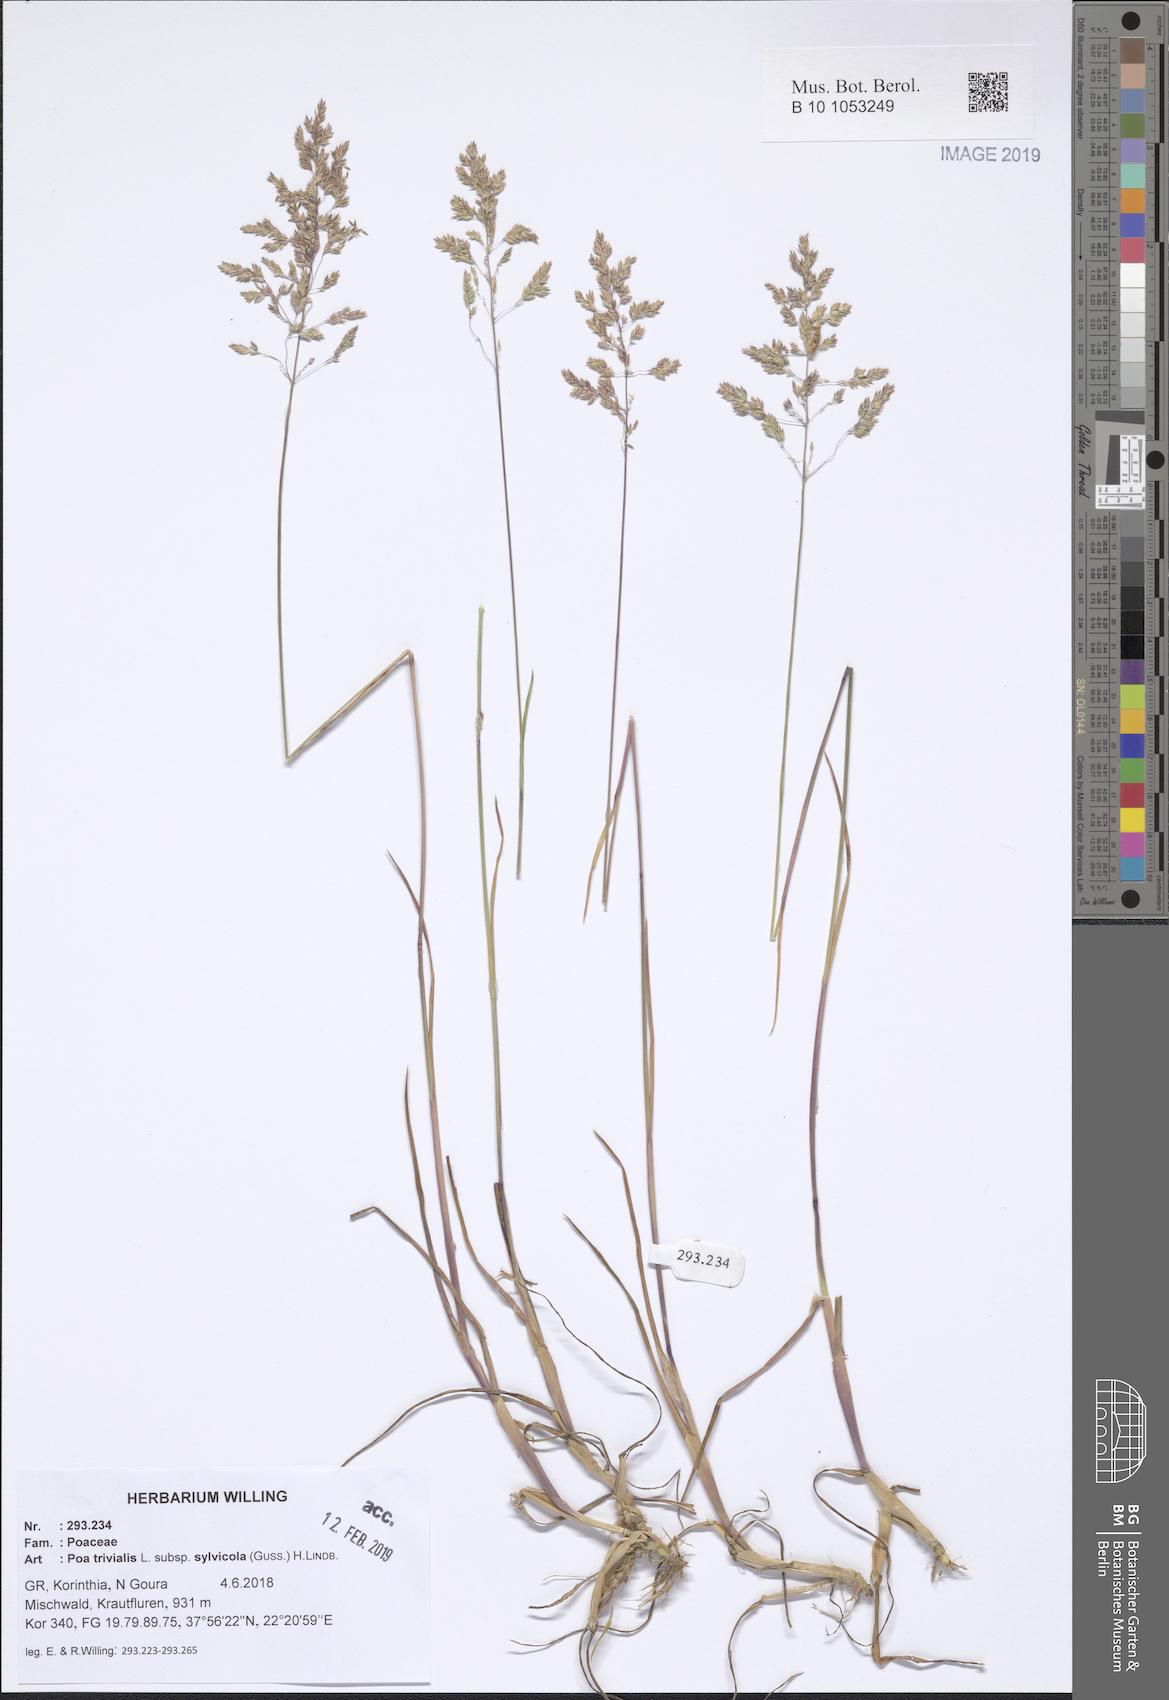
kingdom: Plantae
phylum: Tracheophyta
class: Liliopsida
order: Poales
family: Poaceae
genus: Poa
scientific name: Poa trivialis
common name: Rough bluegrass
